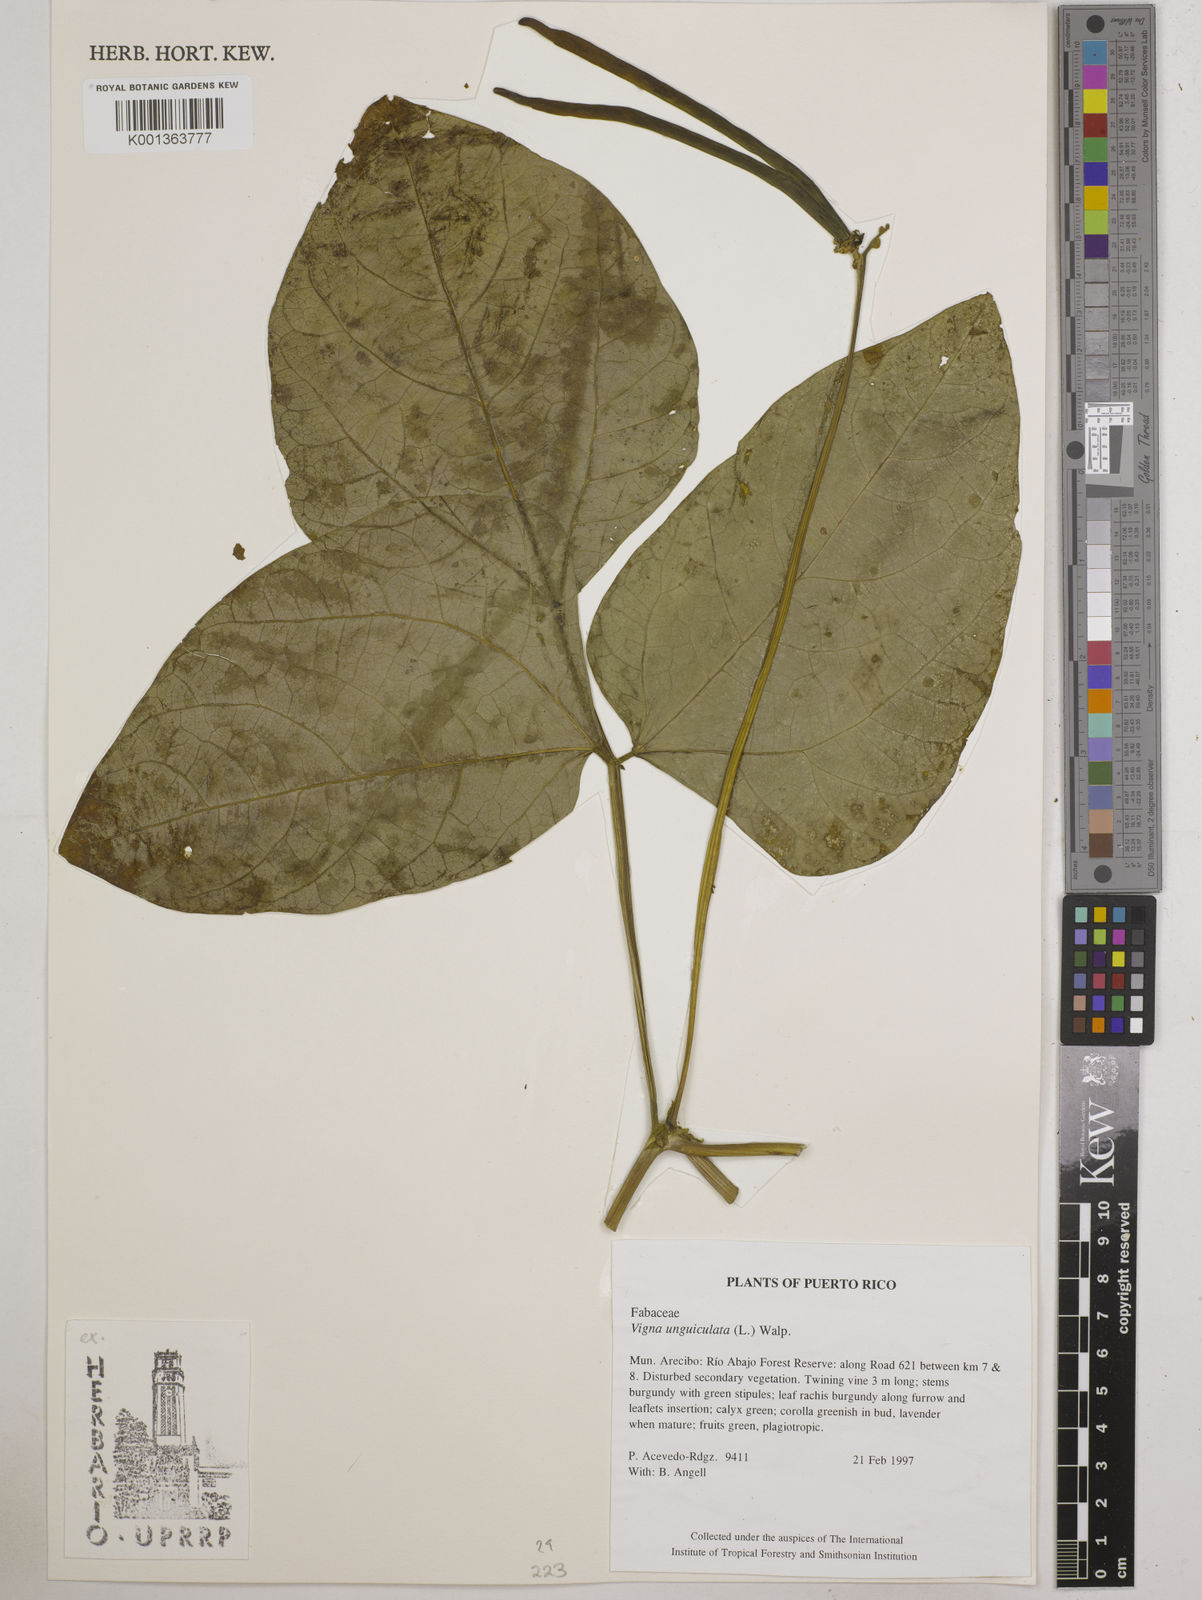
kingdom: Plantae
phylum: Tracheophyta
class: Magnoliopsida
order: Fabales
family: Fabaceae
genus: Vigna
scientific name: Vigna unguiculata
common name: Cowpea
